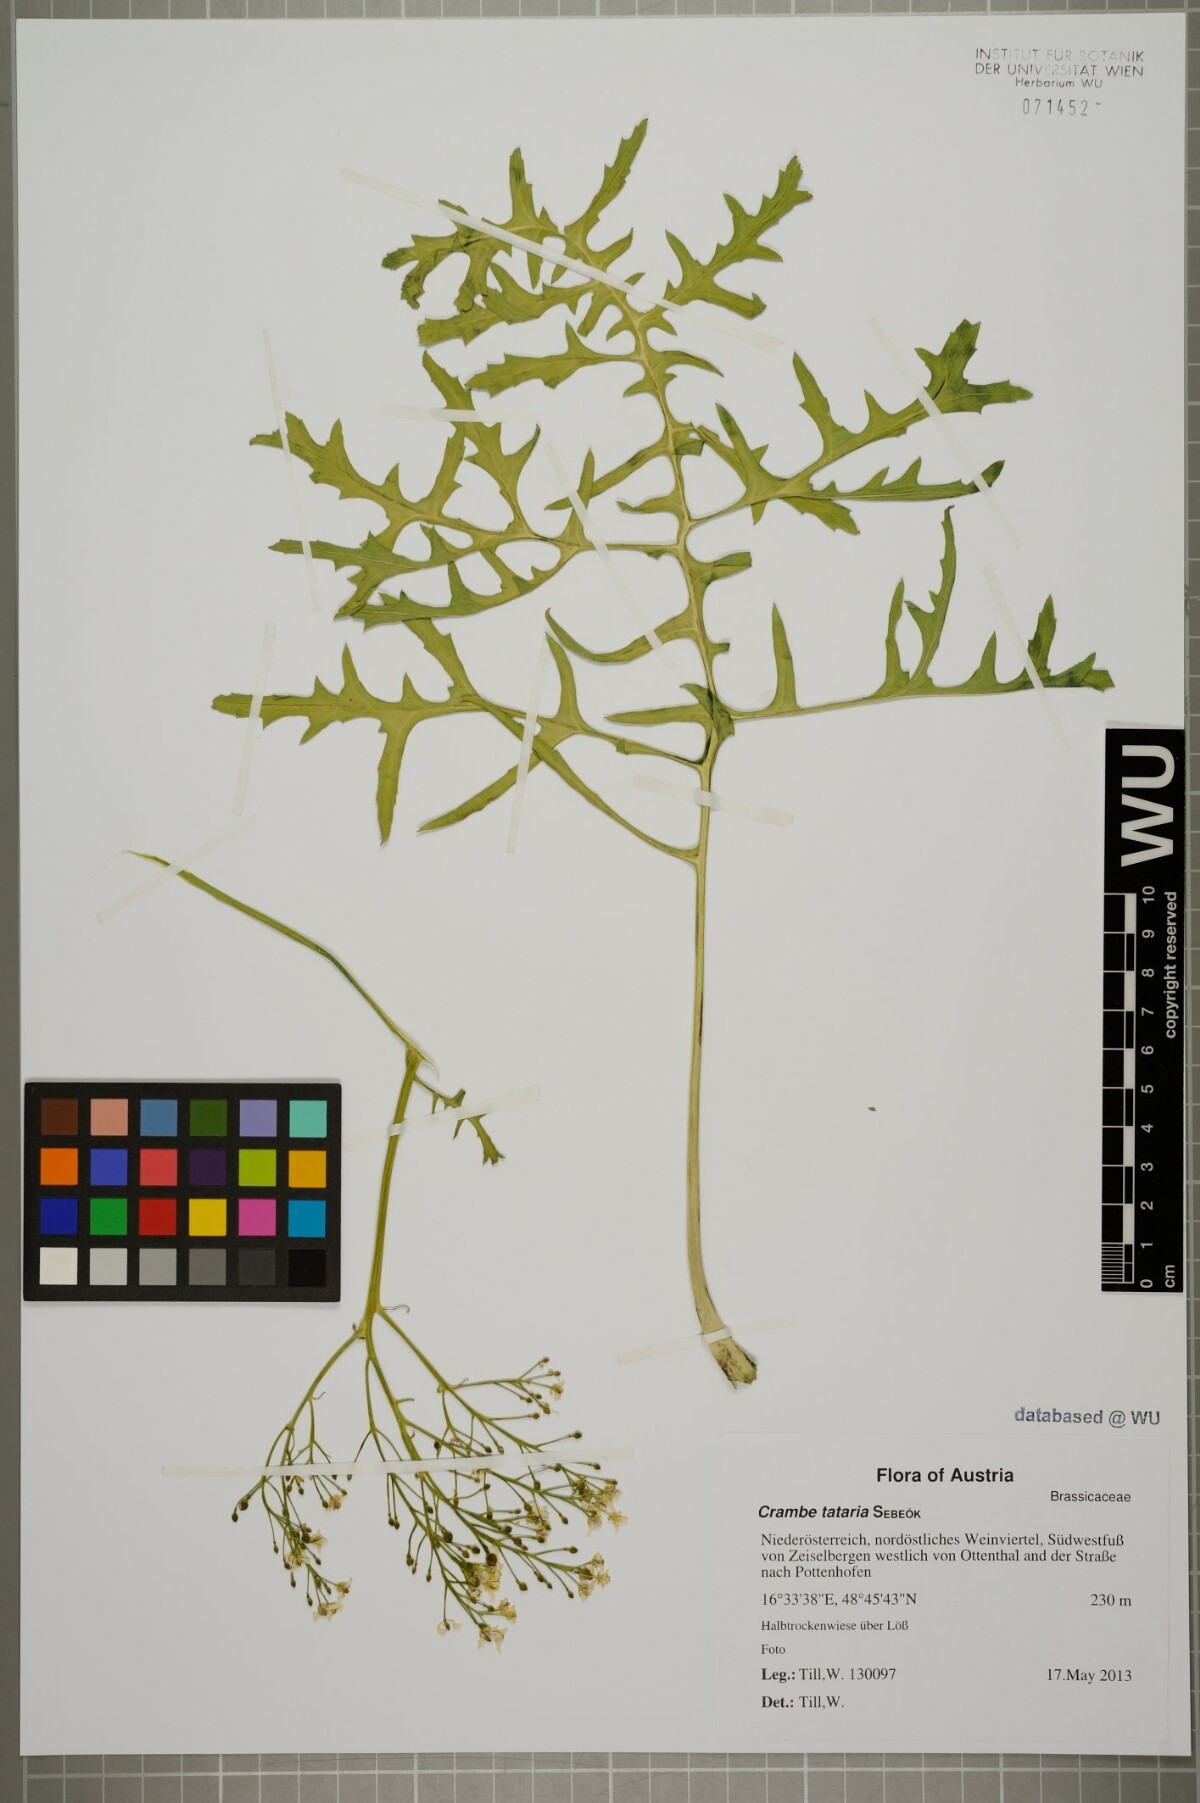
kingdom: Plantae
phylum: Tracheophyta
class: Magnoliopsida
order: Brassicales
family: Brassicaceae
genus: Crambe
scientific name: Crambe tataria
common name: Tartarian breadplant
